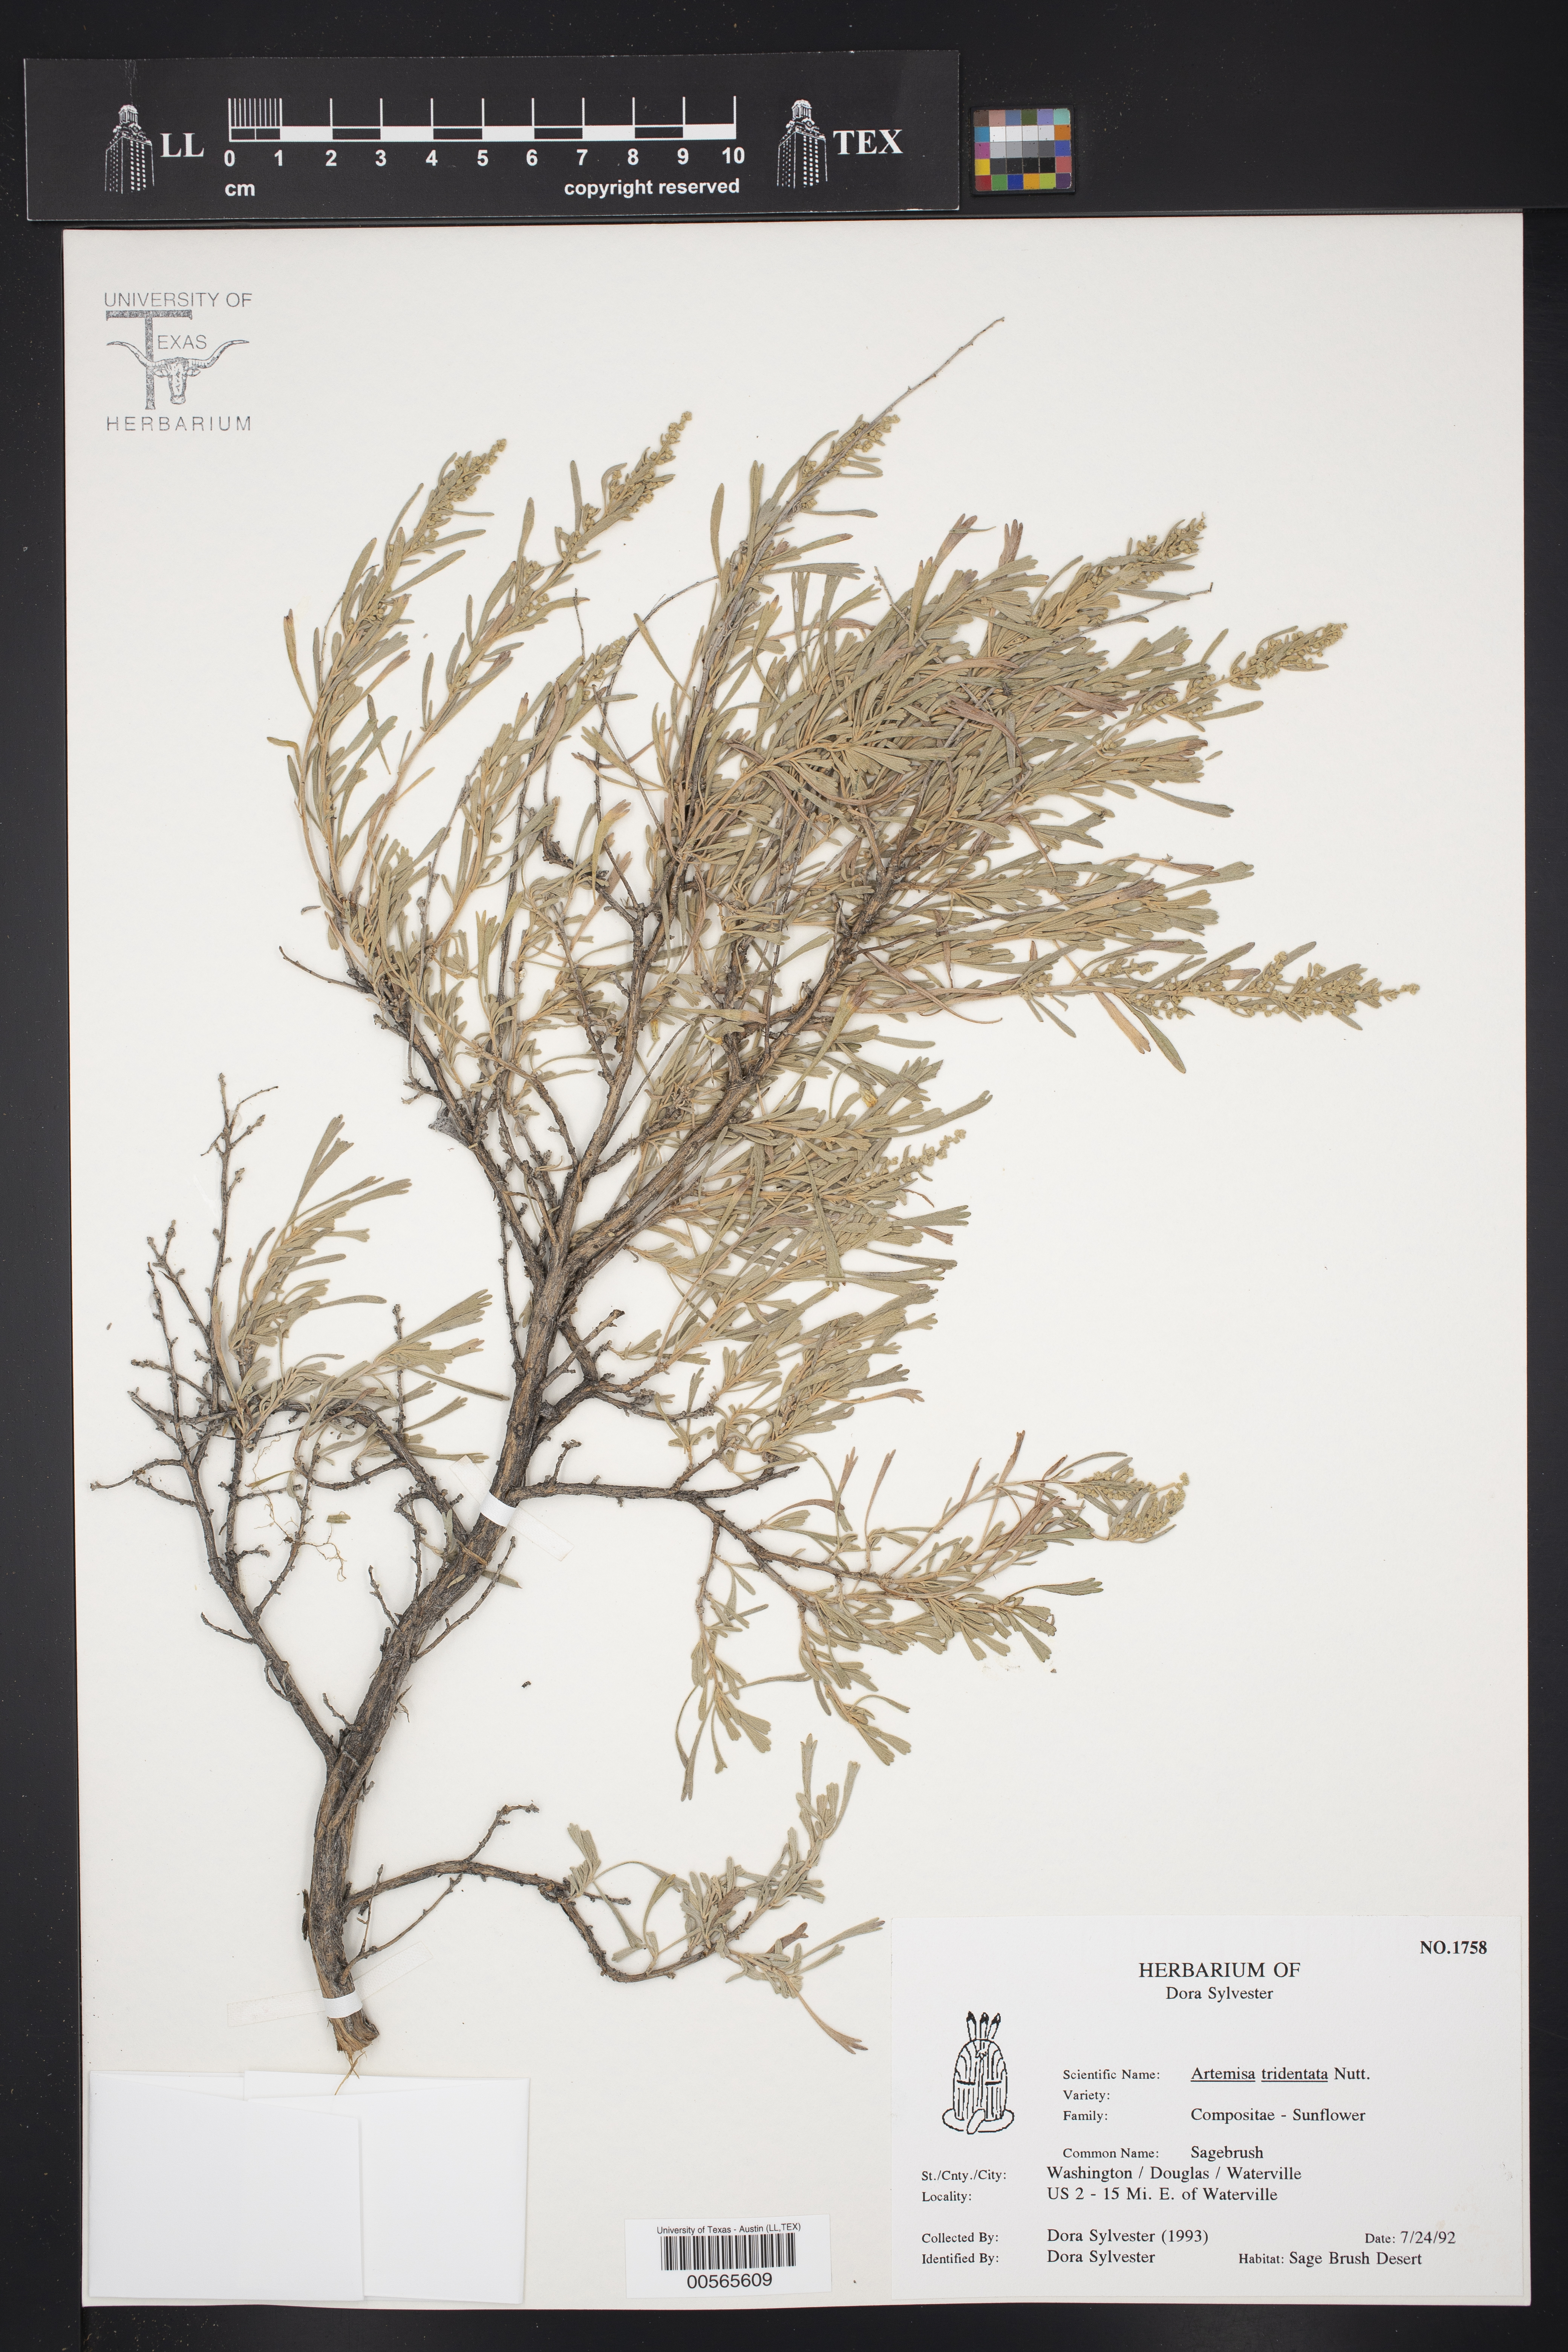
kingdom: Plantae
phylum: Tracheophyta
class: Magnoliopsida
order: Asterales
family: Asteraceae
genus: Artemisia
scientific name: Artemisia tridentata
